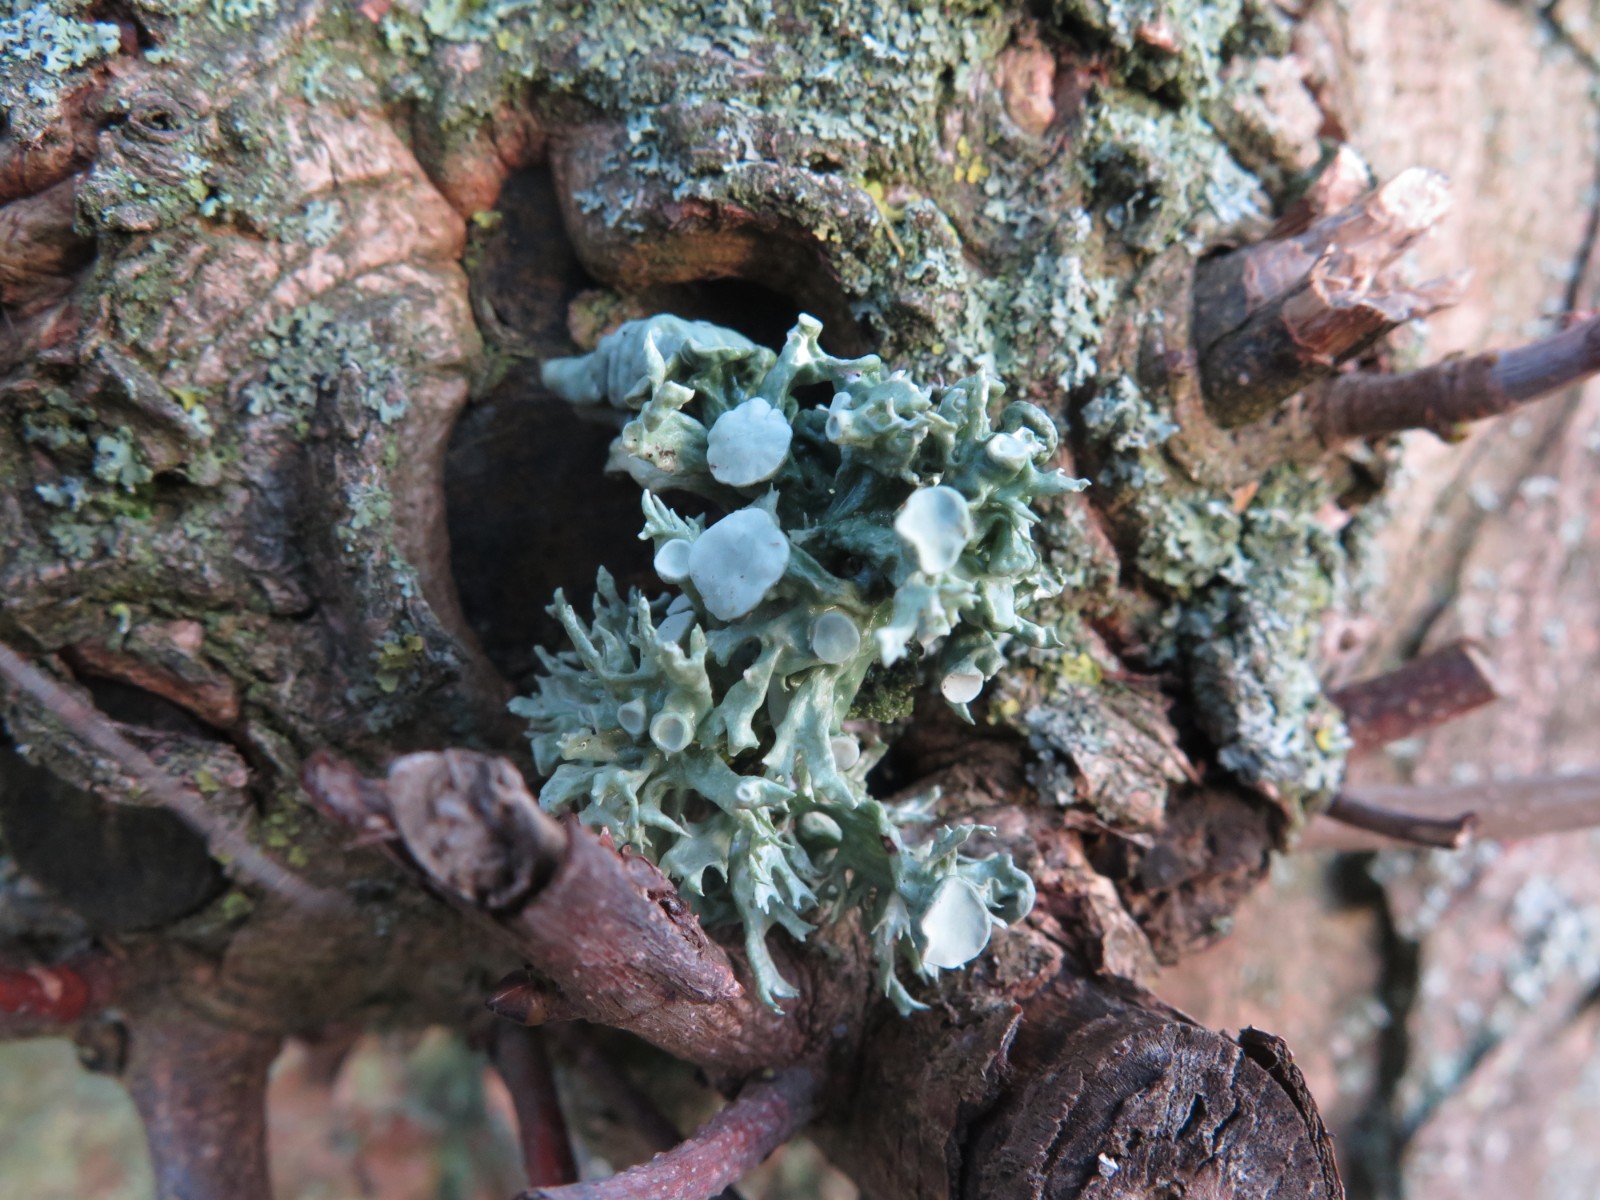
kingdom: Fungi
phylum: Ascomycota
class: Lecanoromycetes
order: Lecanorales
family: Ramalinaceae
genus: Ramalina
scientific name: Ramalina fastigiata
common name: tue-grenlav
